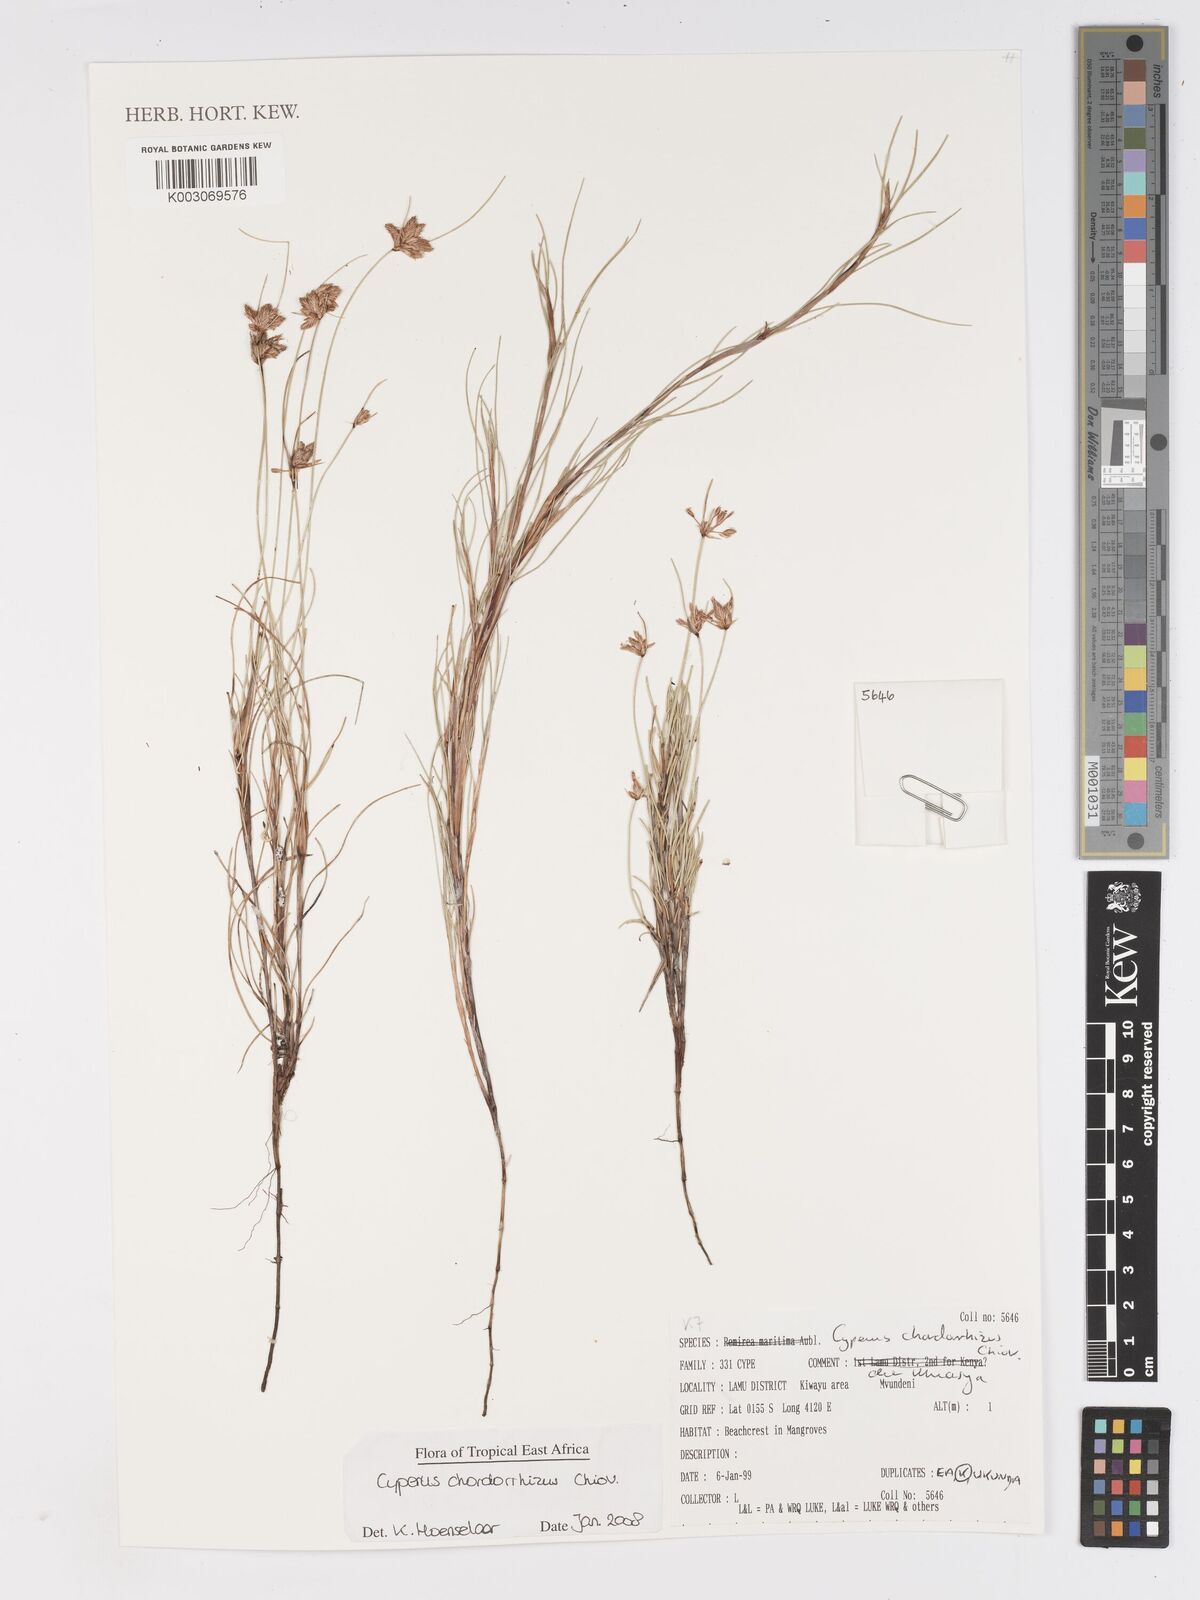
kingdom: Plantae
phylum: Tracheophyta
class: Liliopsida
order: Poales
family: Cyperaceae
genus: Cyperus
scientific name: Cyperus chordorrhizus
